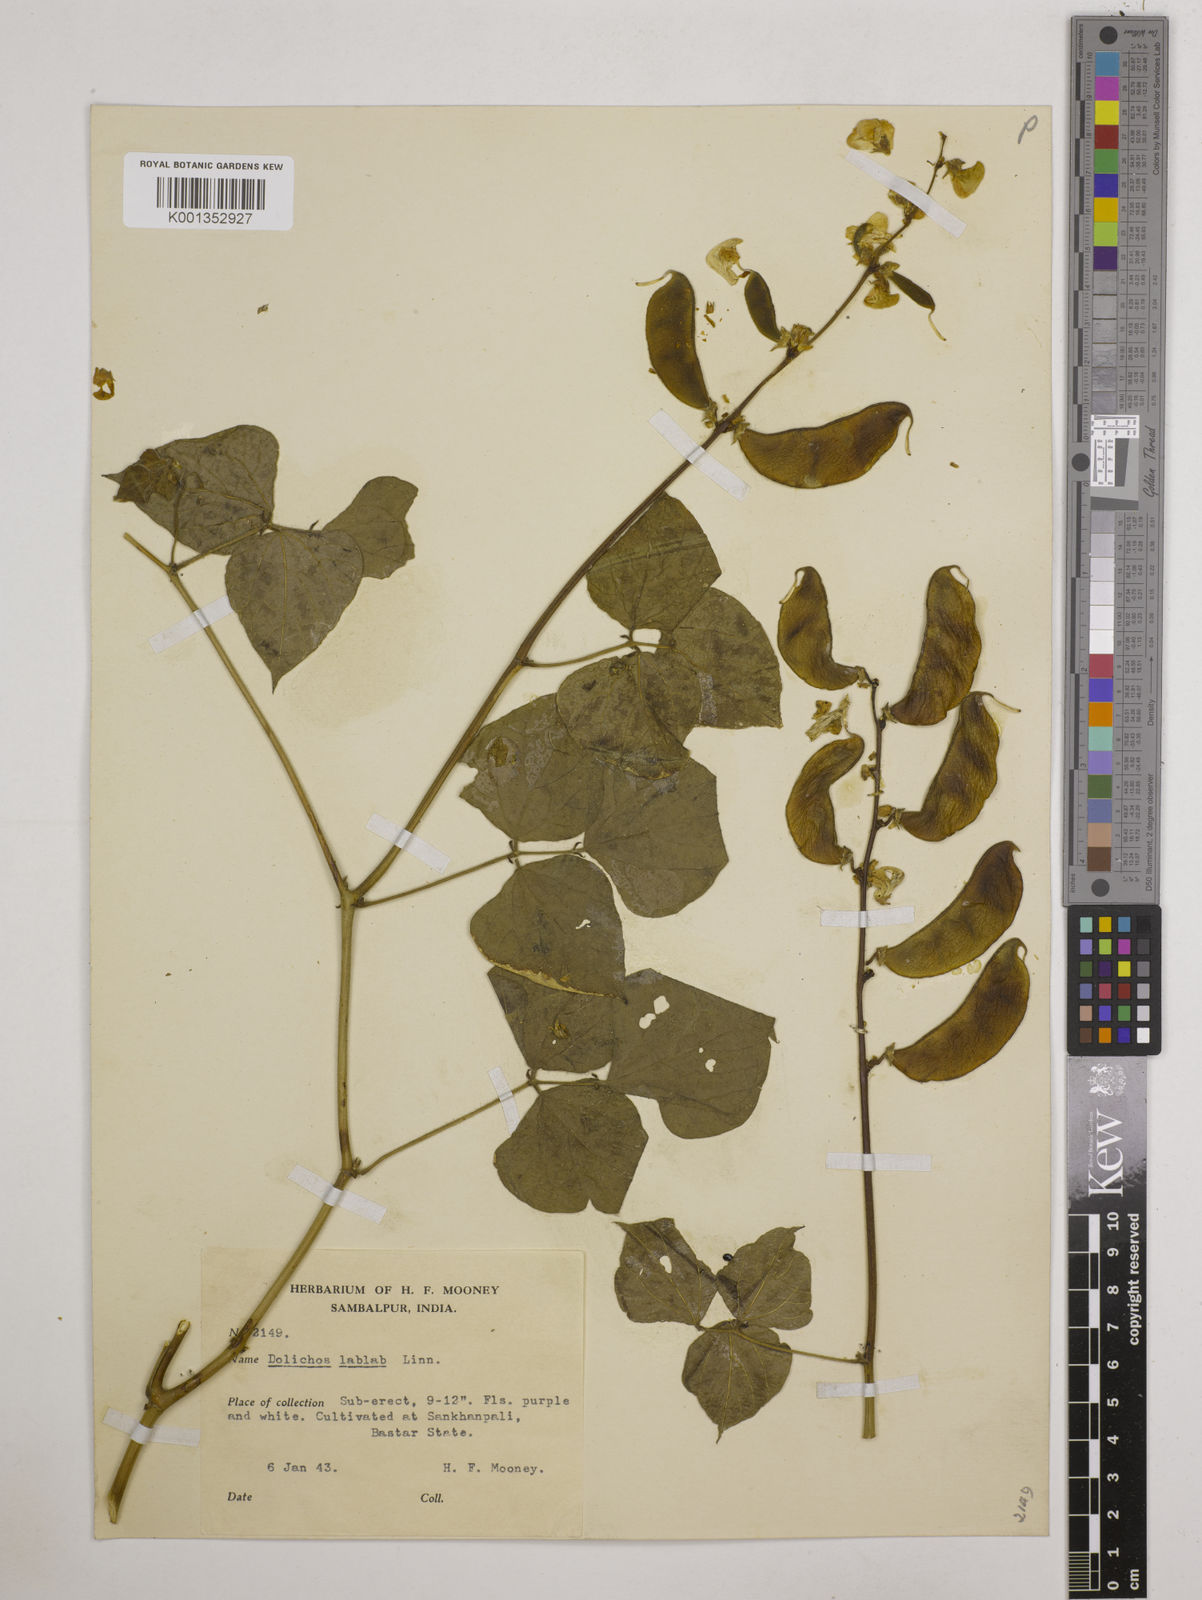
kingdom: Plantae
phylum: Tracheophyta
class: Magnoliopsida
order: Fabales
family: Fabaceae
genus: Lablab
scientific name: Lablab purpureus
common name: Lablab-bean
